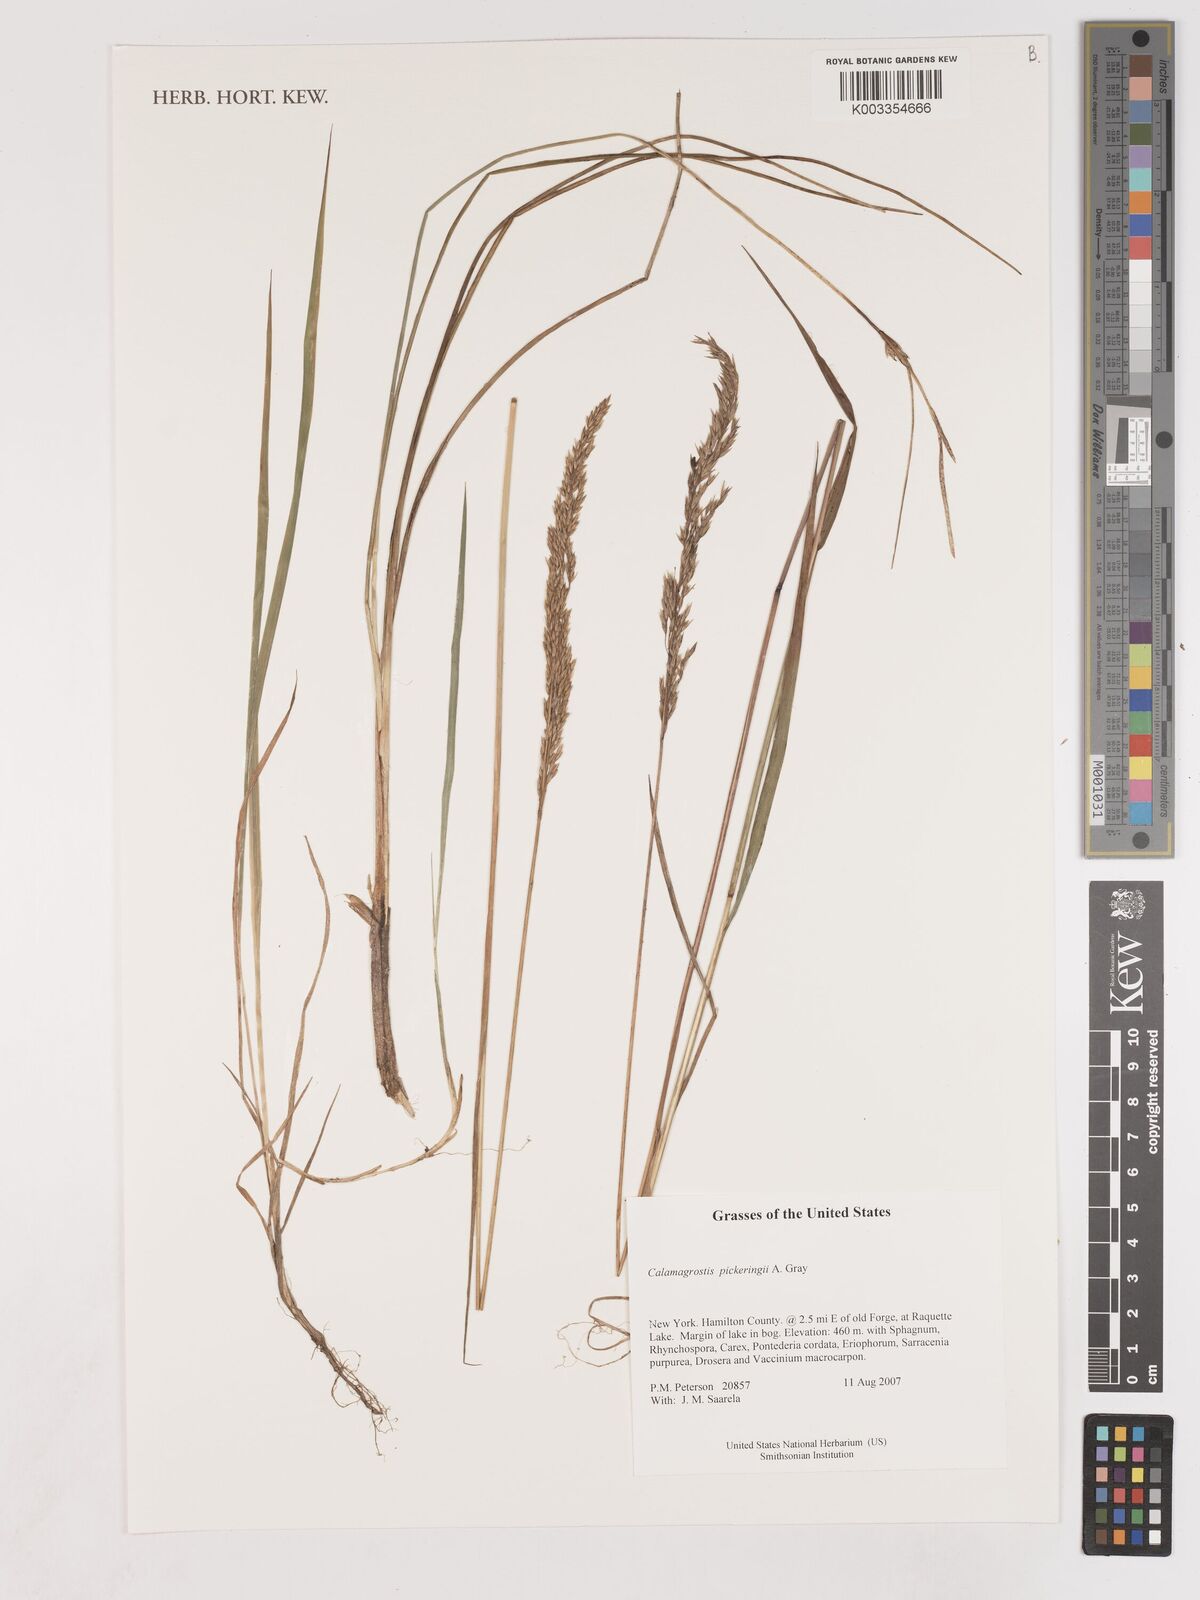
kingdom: Plantae
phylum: Tracheophyta
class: Liliopsida
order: Poales
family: Poaceae
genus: Calamagrostis
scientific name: Calamagrostis pickeringii
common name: Pickering's reed bentgrass
